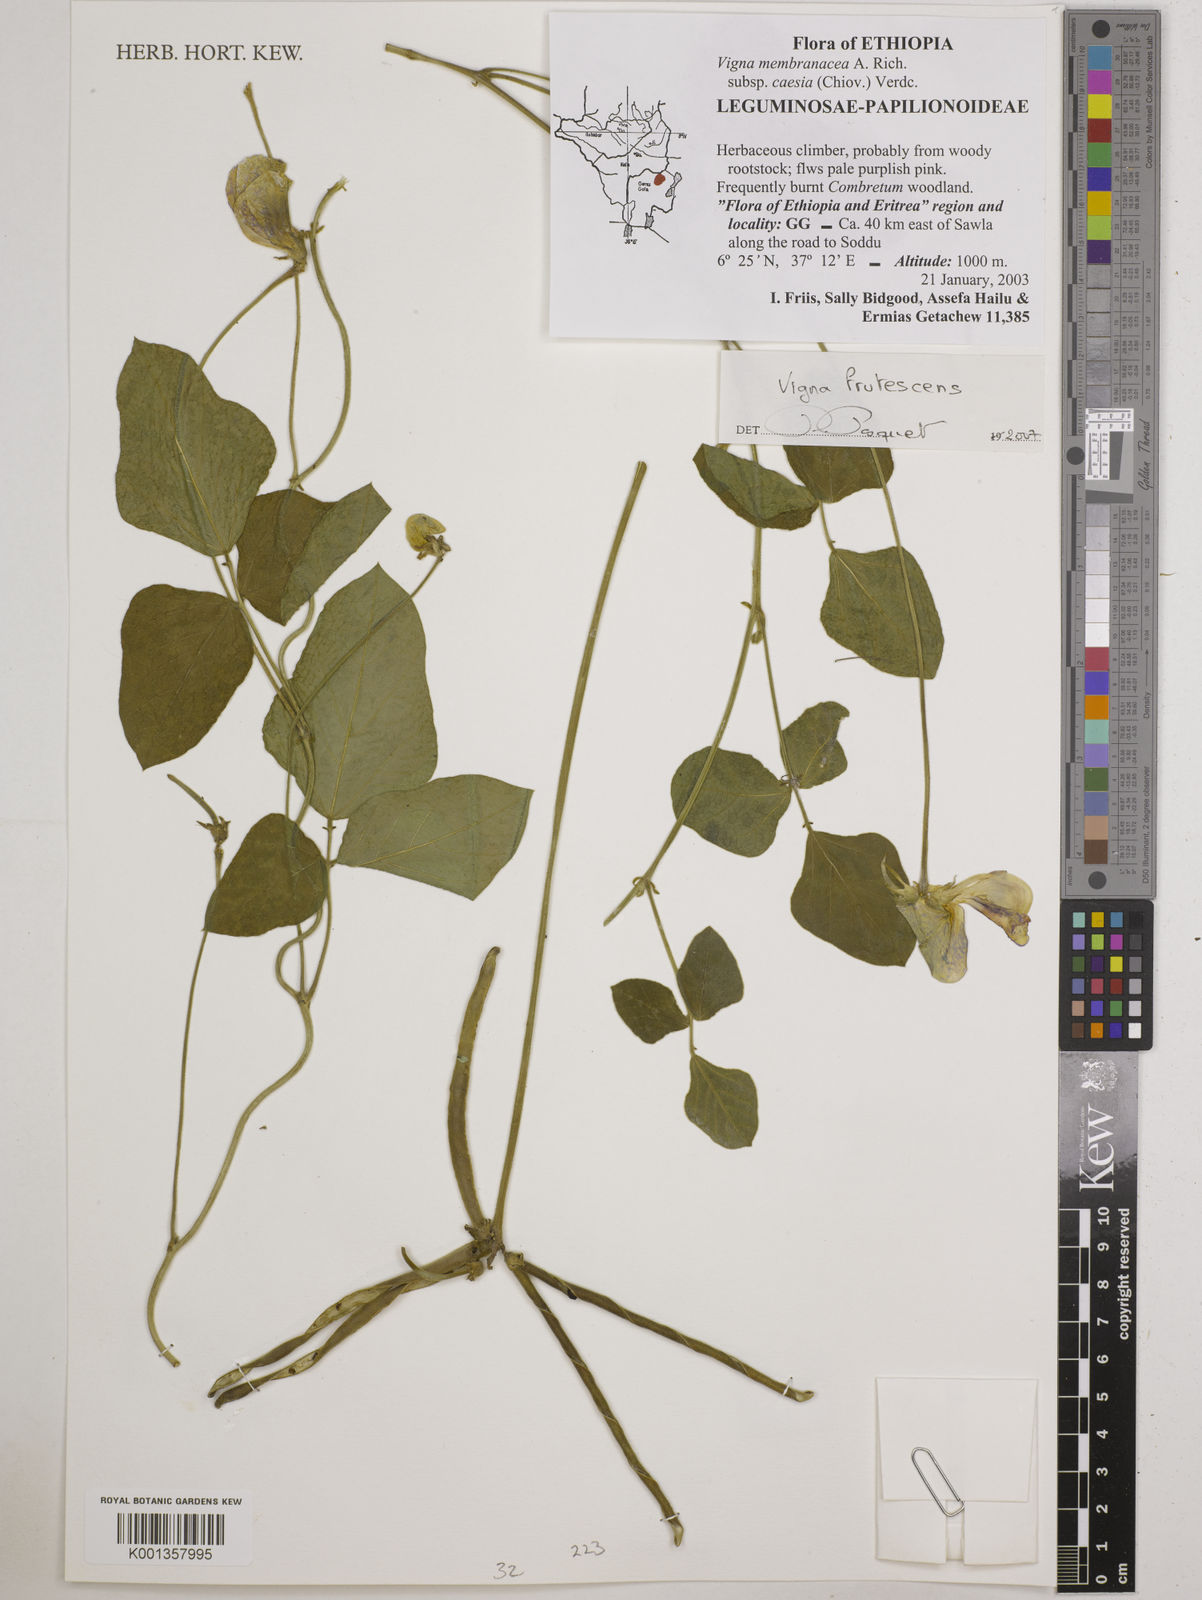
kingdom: Plantae
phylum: Tracheophyta
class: Magnoliopsida
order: Fabales
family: Fabaceae
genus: Vigna
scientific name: Vigna frutescens
